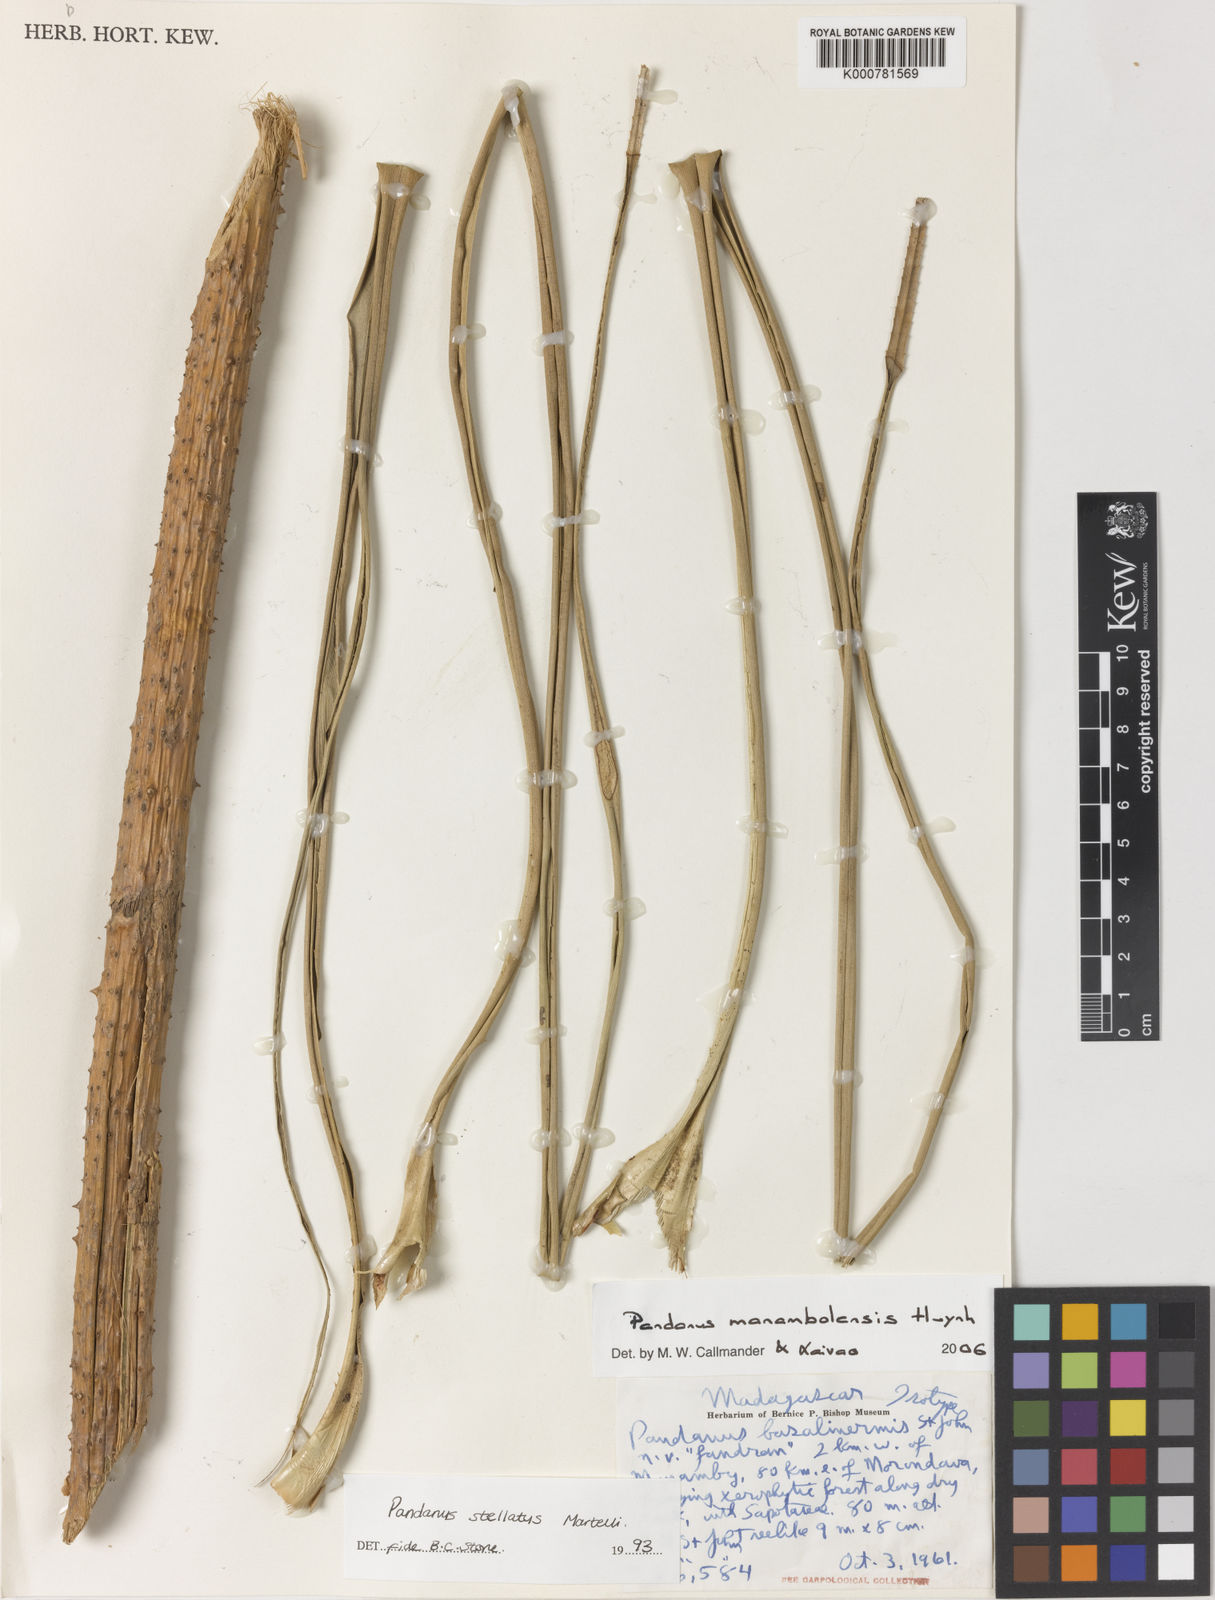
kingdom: Plantae
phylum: Tracheophyta
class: Liliopsida
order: Pandanales
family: Pandanaceae
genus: Pandanus
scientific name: Pandanus
